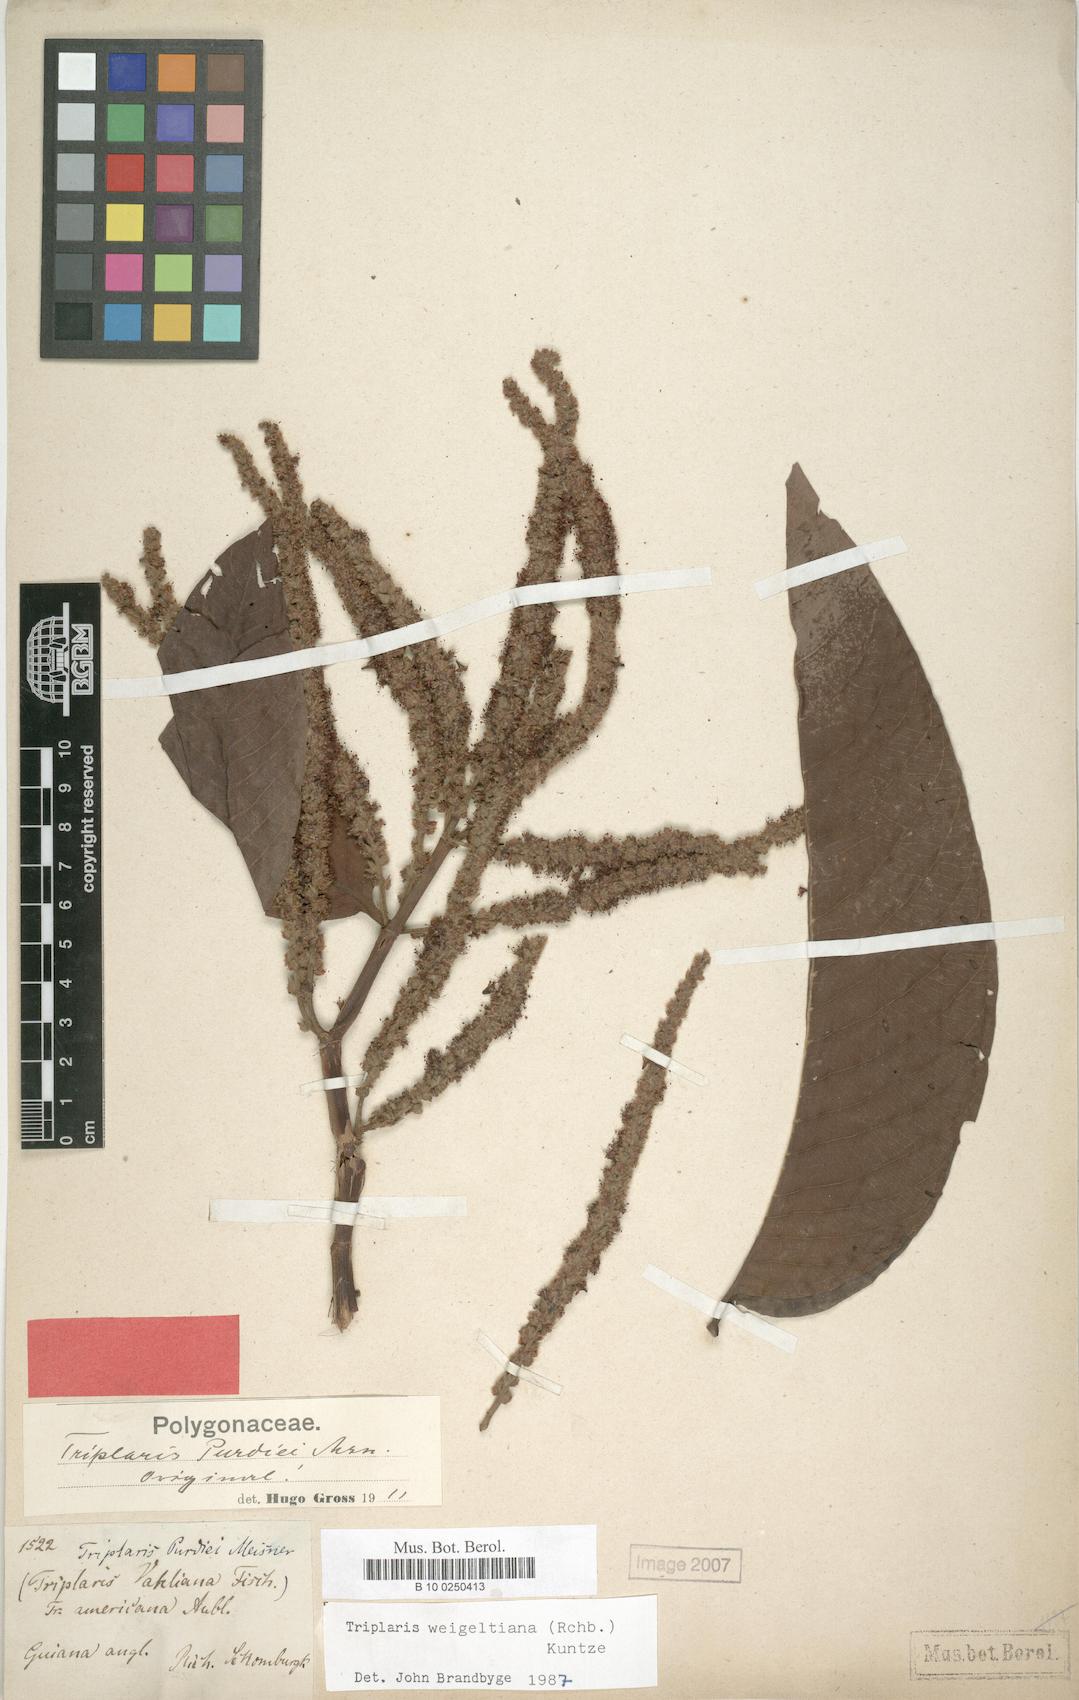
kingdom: Plantae
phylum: Tracheophyta
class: Magnoliopsida
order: Caryophyllales
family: Polygonaceae
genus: Triplaris
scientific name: Triplaris weigeltiana
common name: Long john
